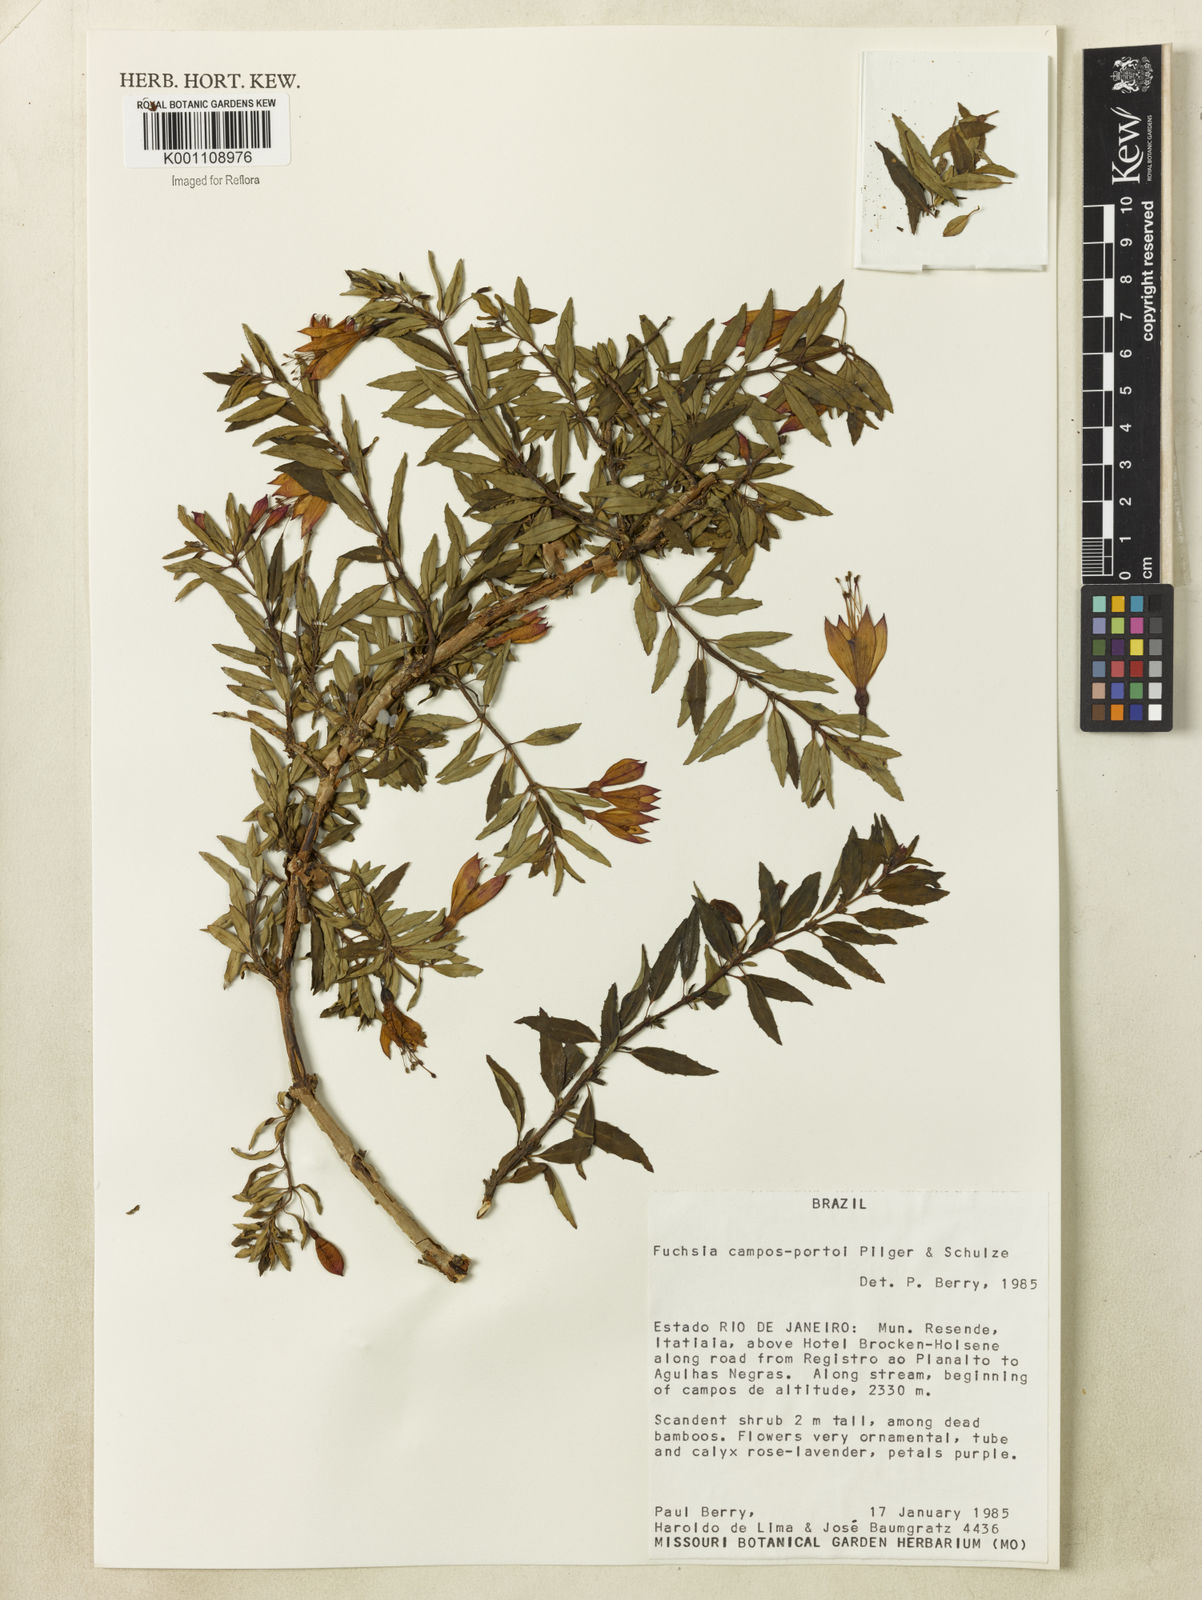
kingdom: Plantae
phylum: Tracheophyta
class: Magnoliopsida
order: Myrtales
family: Onagraceae
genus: Fuchsia
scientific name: Fuchsia campos-portoi
